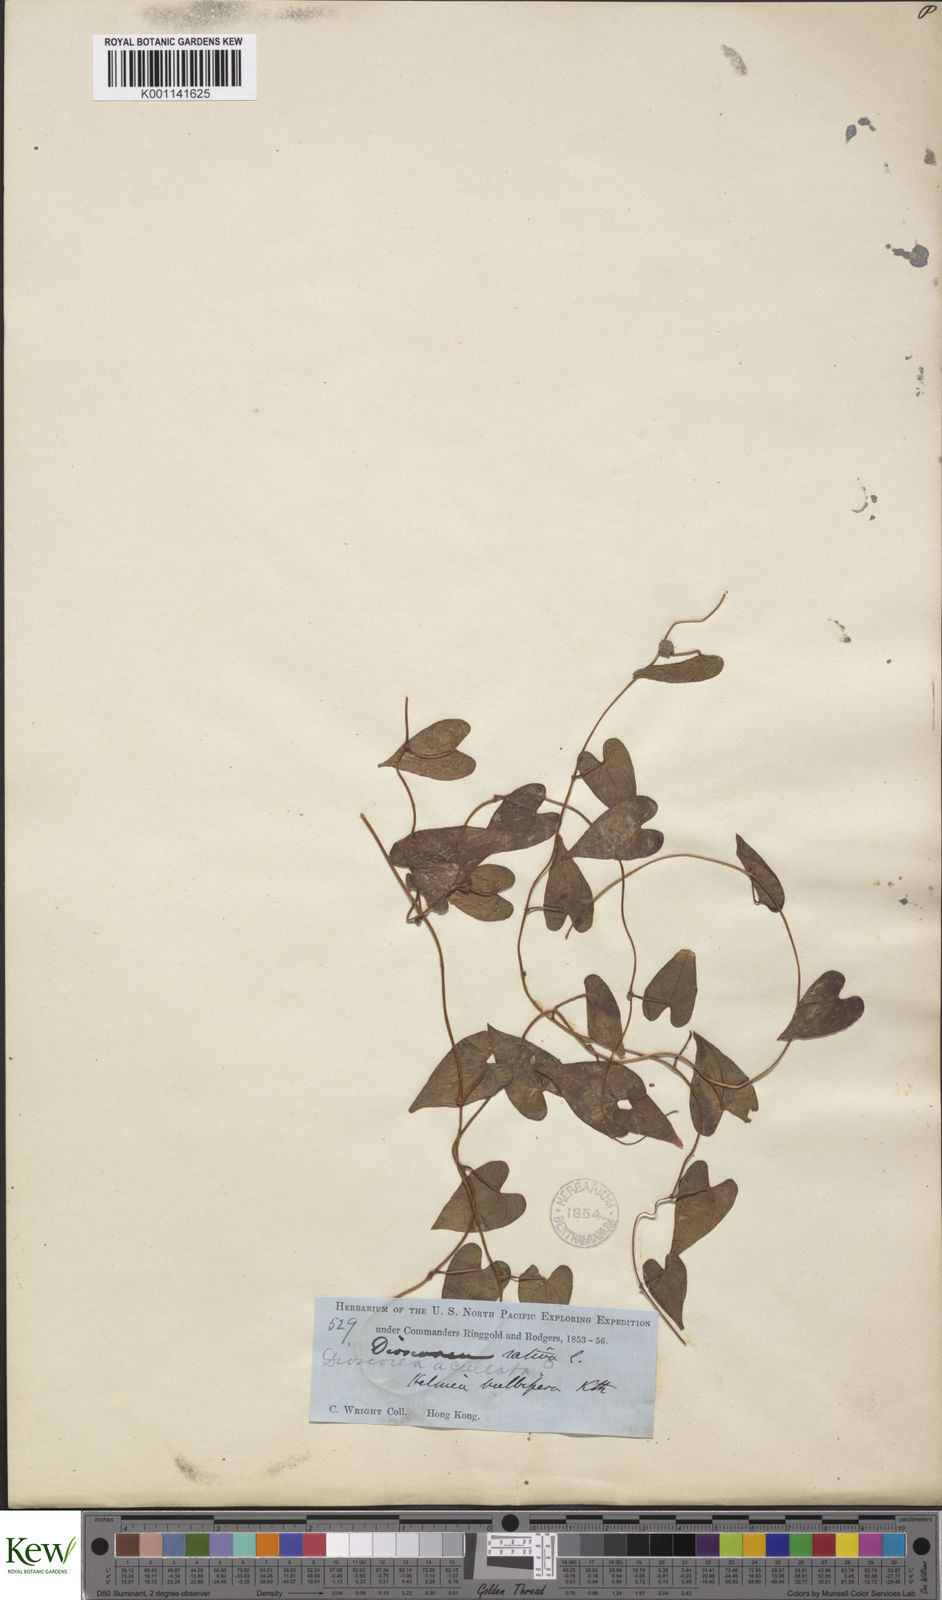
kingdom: Plantae
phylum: Tracheophyta
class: Liliopsida
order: Dioscoreales
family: Dioscoreaceae
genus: Dioscorea
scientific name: Dioscorea bulbifera
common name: Air yam
